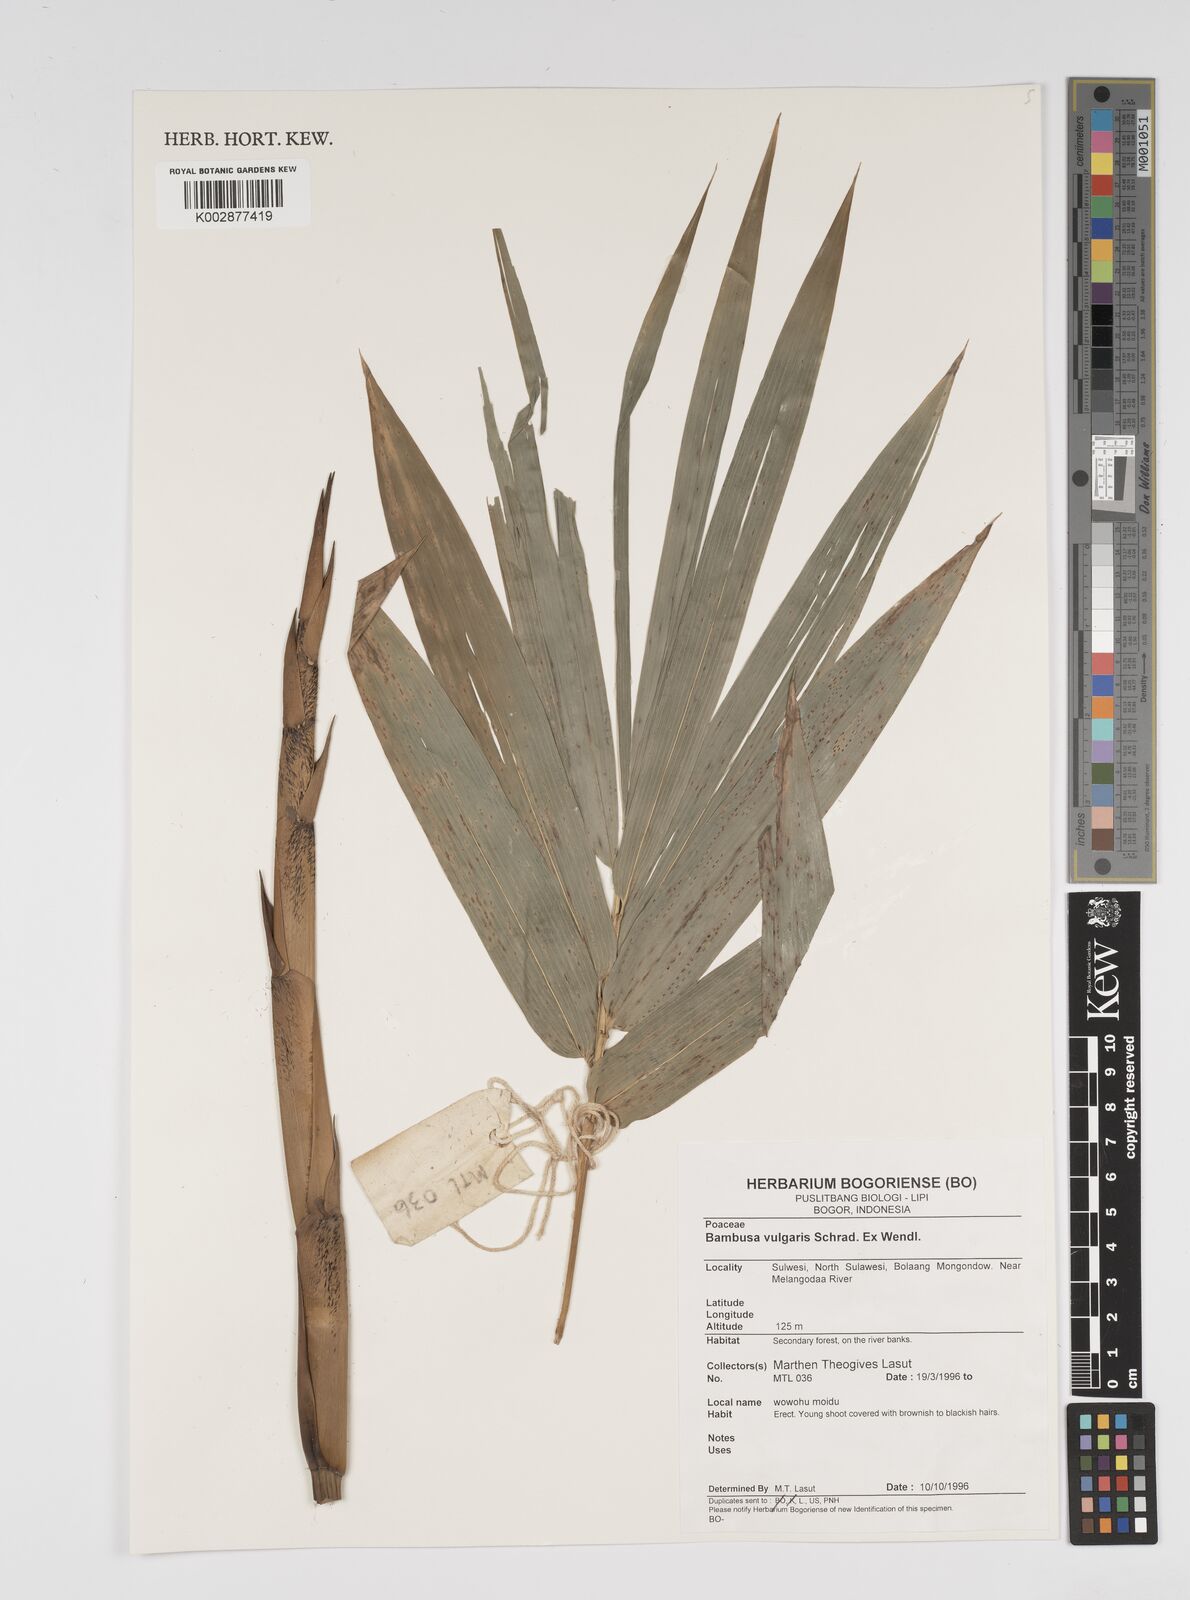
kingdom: Plantae
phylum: Tracheophyta
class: Liliopsida
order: Poales
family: Poaceae
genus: Bambusa
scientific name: Bambusa vulgaris
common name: Common bamboo
